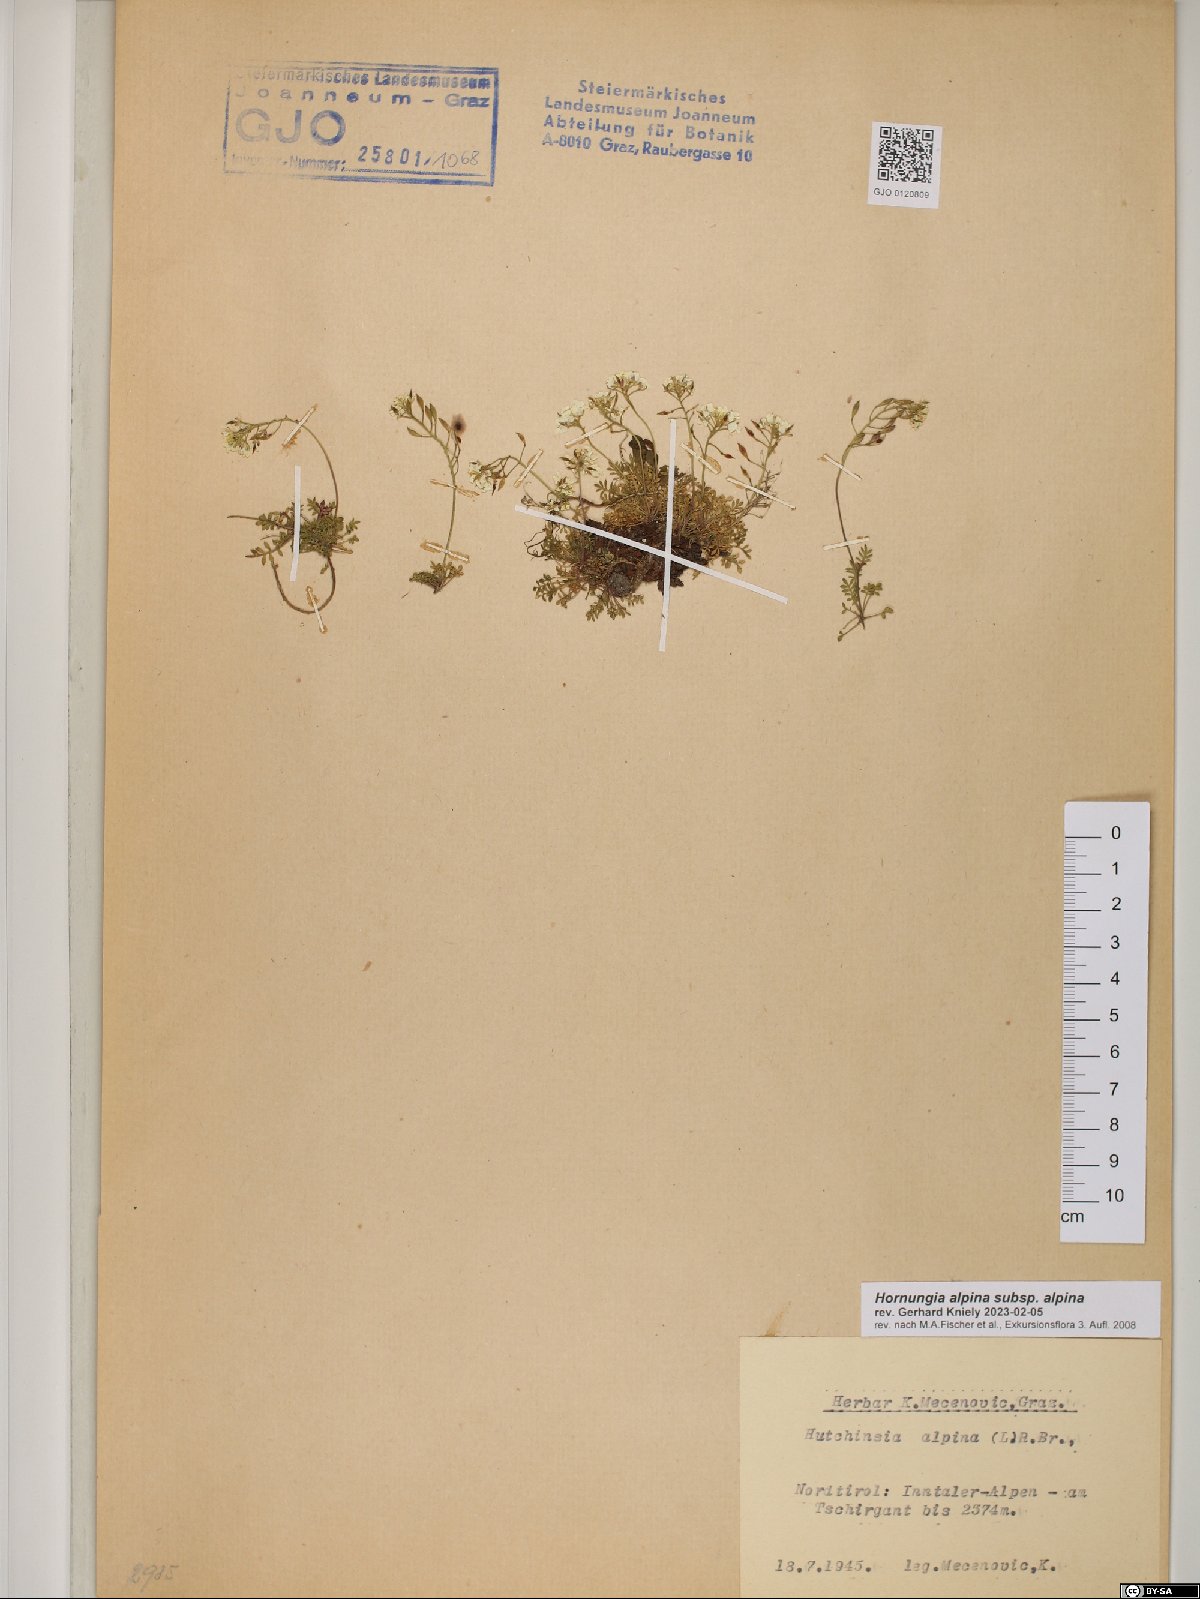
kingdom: Plantae
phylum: Tracheophyta
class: Magnoliopsida
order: Brassicales
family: Brassicaceae
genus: Hornungia
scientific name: Hornungia alpina
